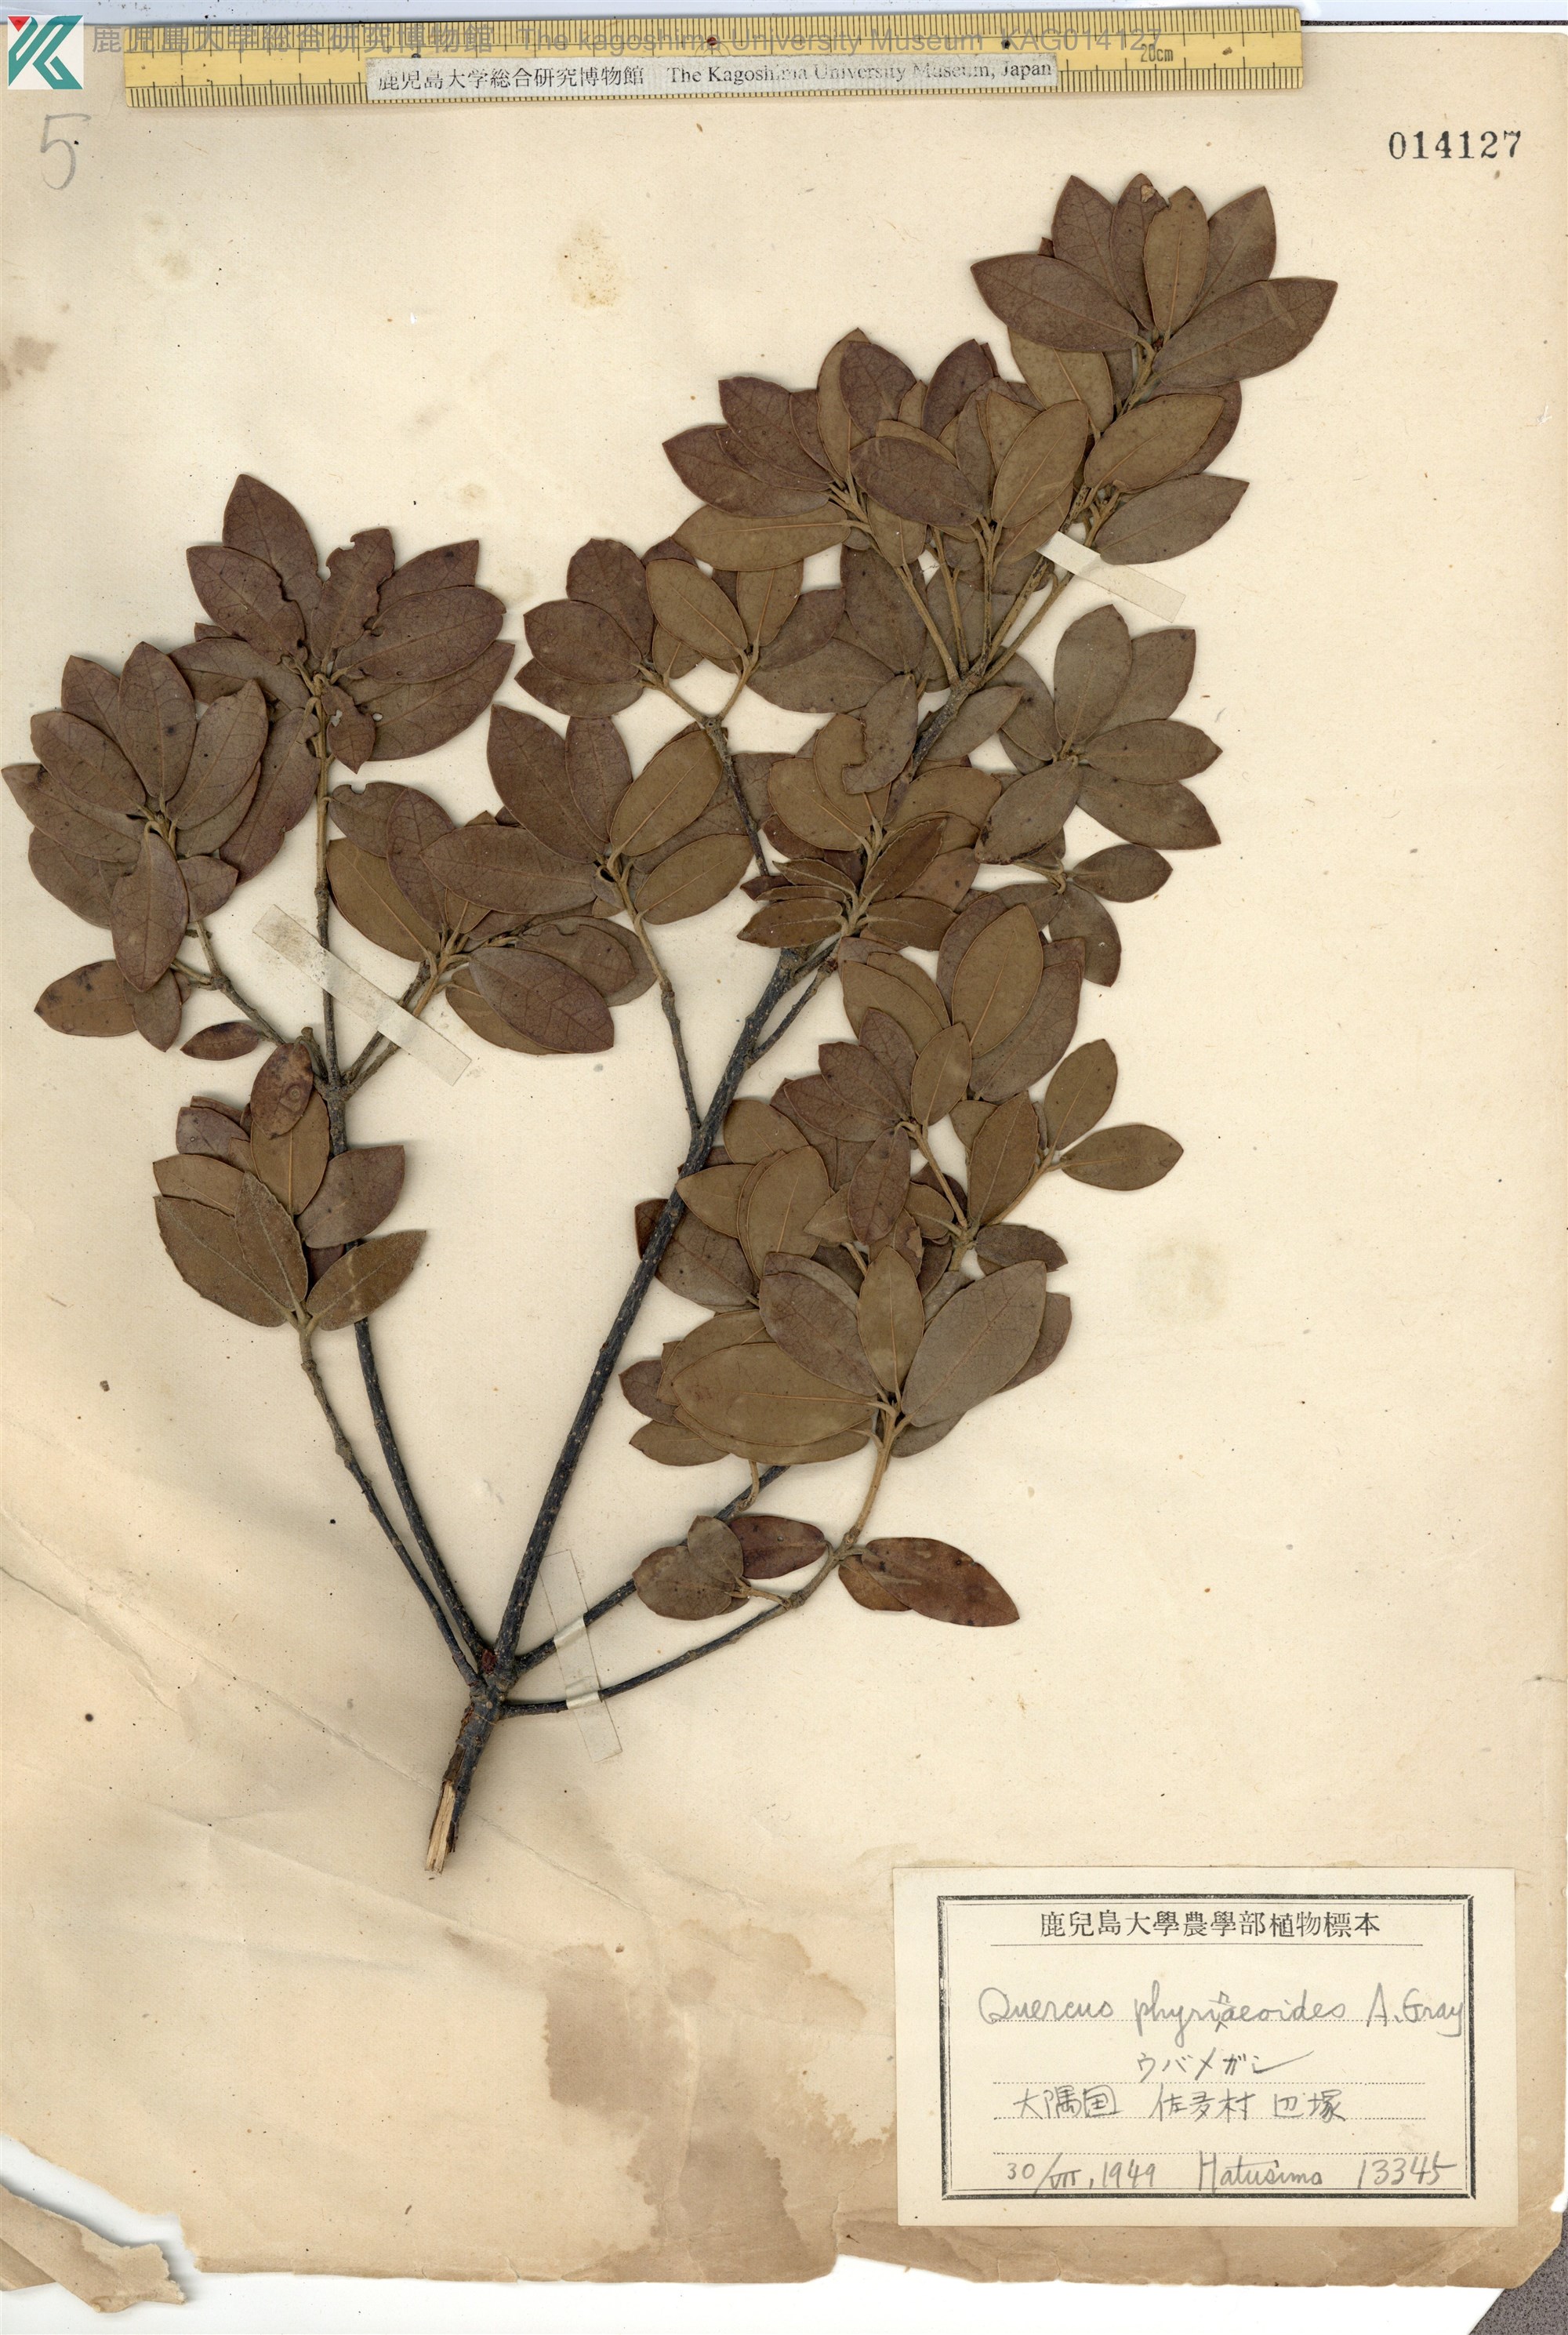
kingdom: Plantae
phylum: Tracheophyta
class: Magnoliopsida
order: Fagales
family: Fagaceae
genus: Quercus
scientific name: Quercus phillyraeoides
